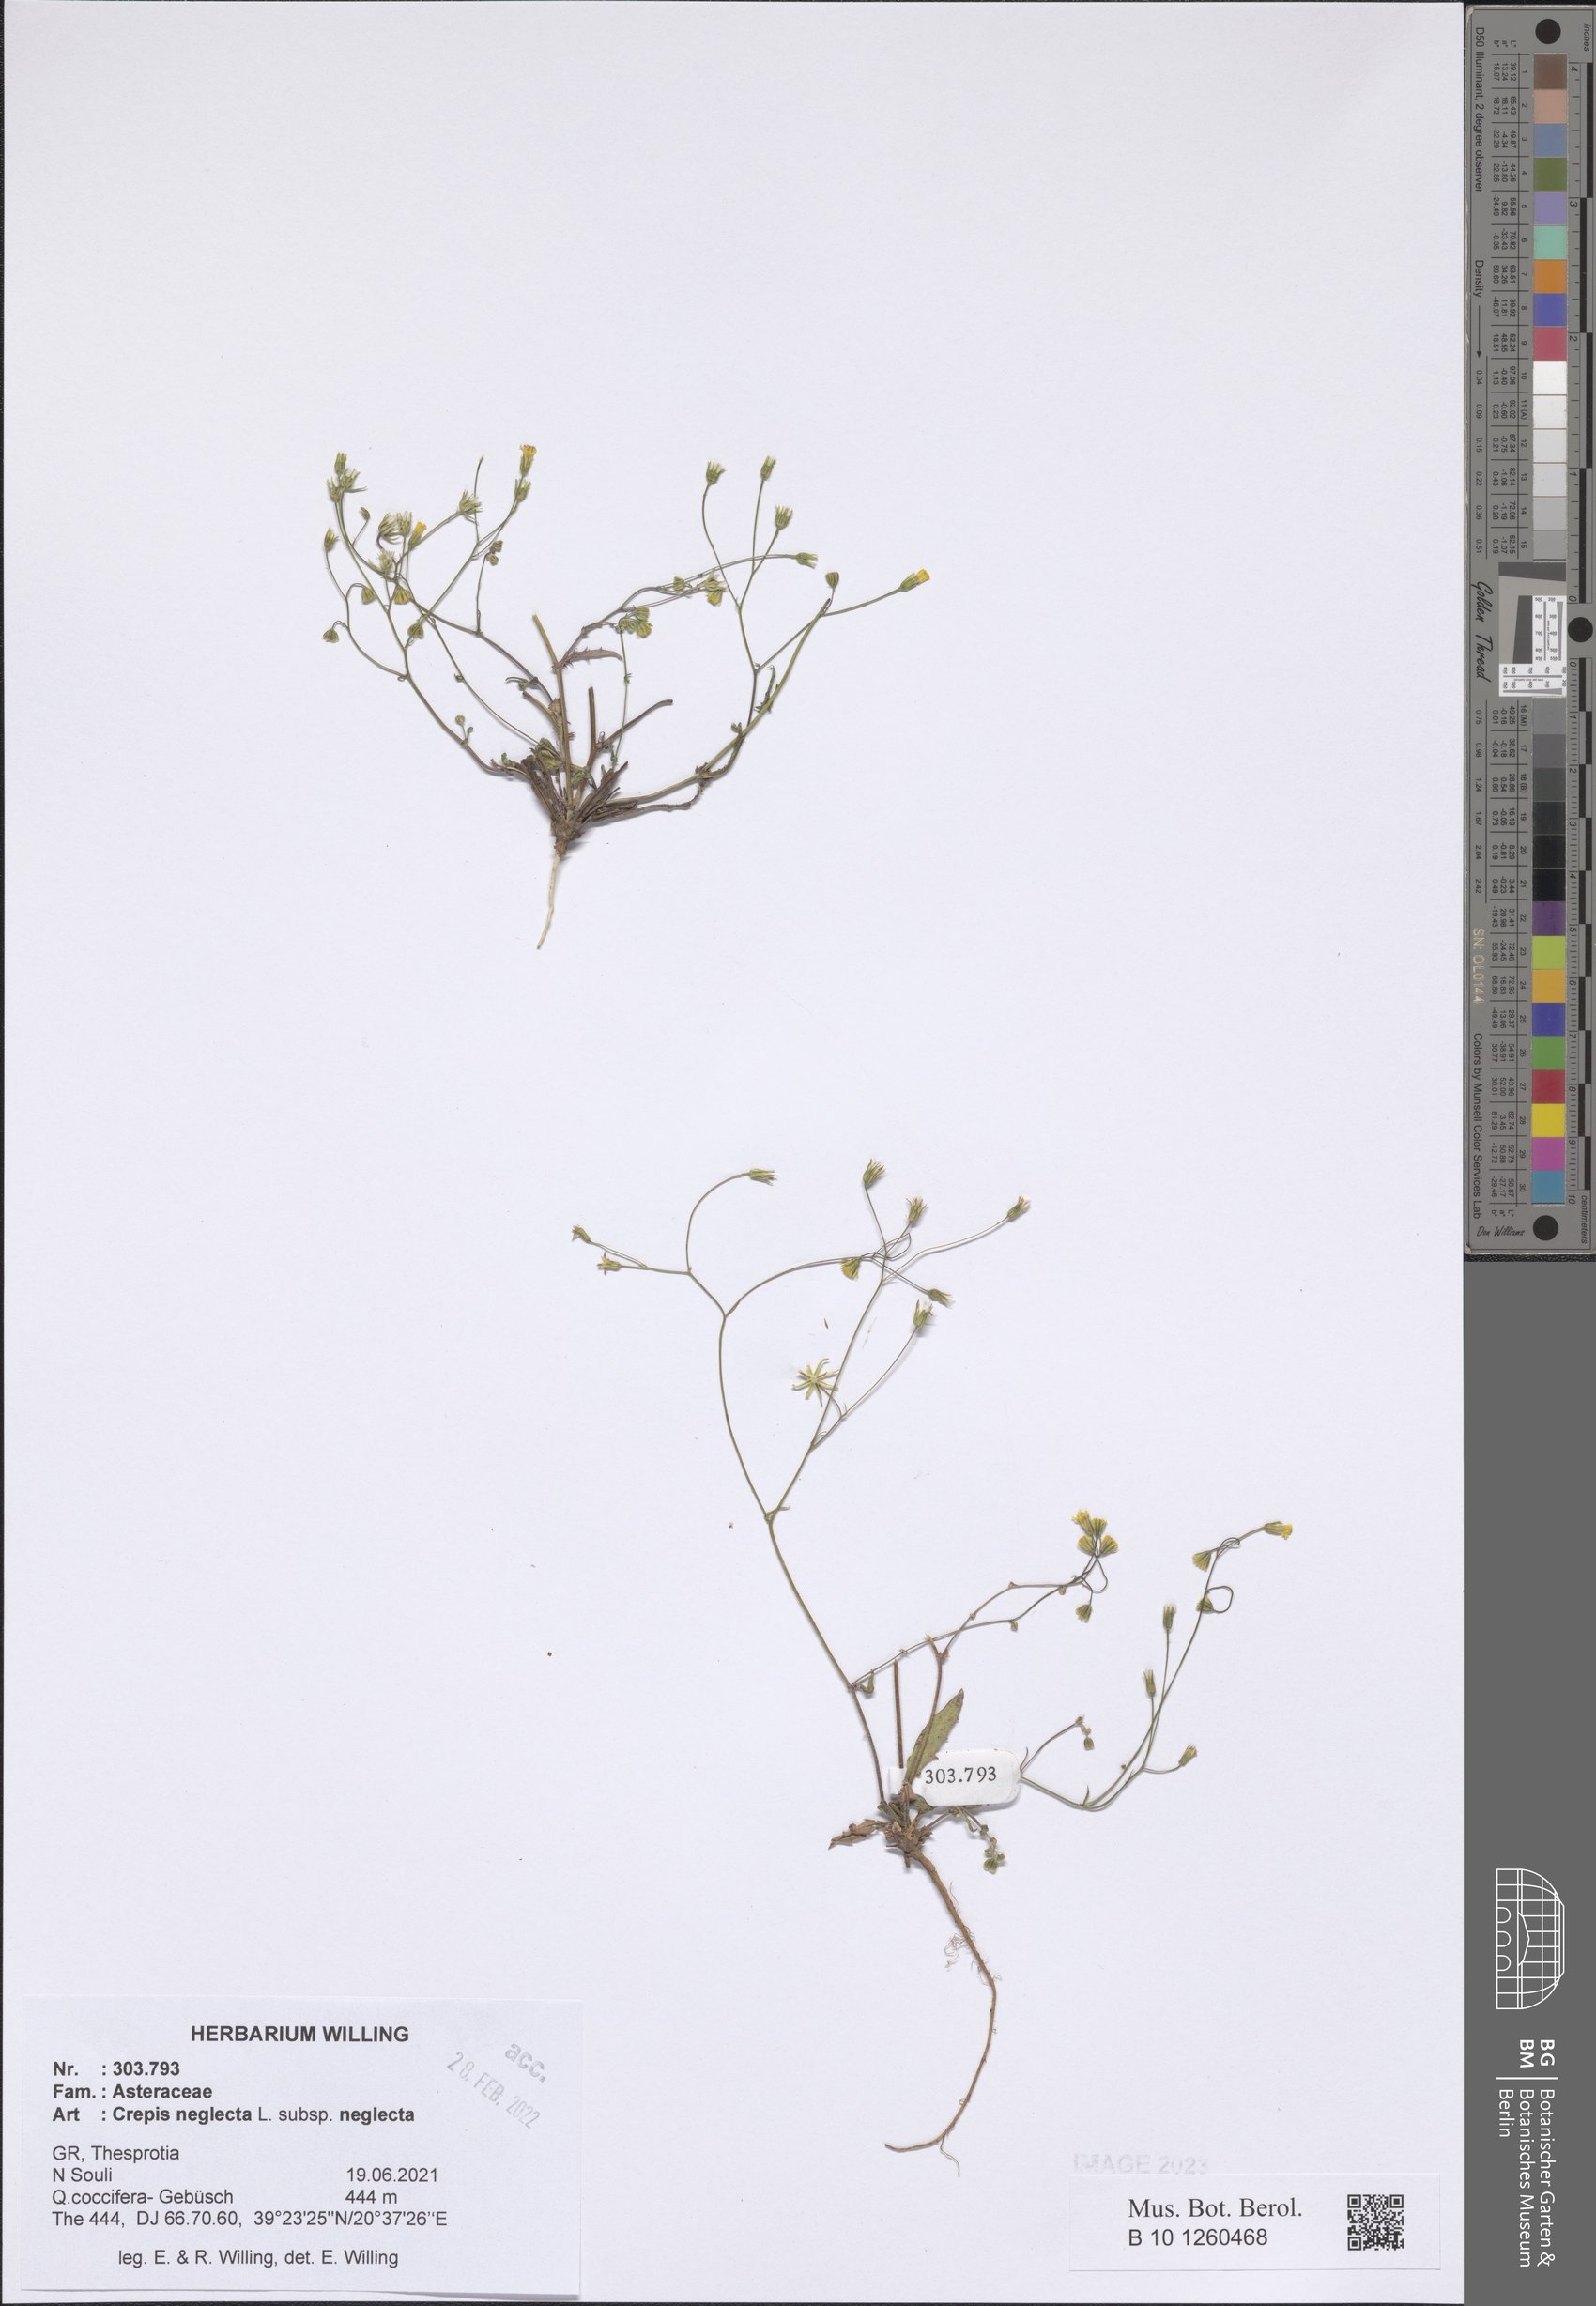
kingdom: Plantae
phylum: Tracheophyta
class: Magnoliopsida
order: Asterales
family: Asteraceae
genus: Crepis
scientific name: Crepis neglecta
